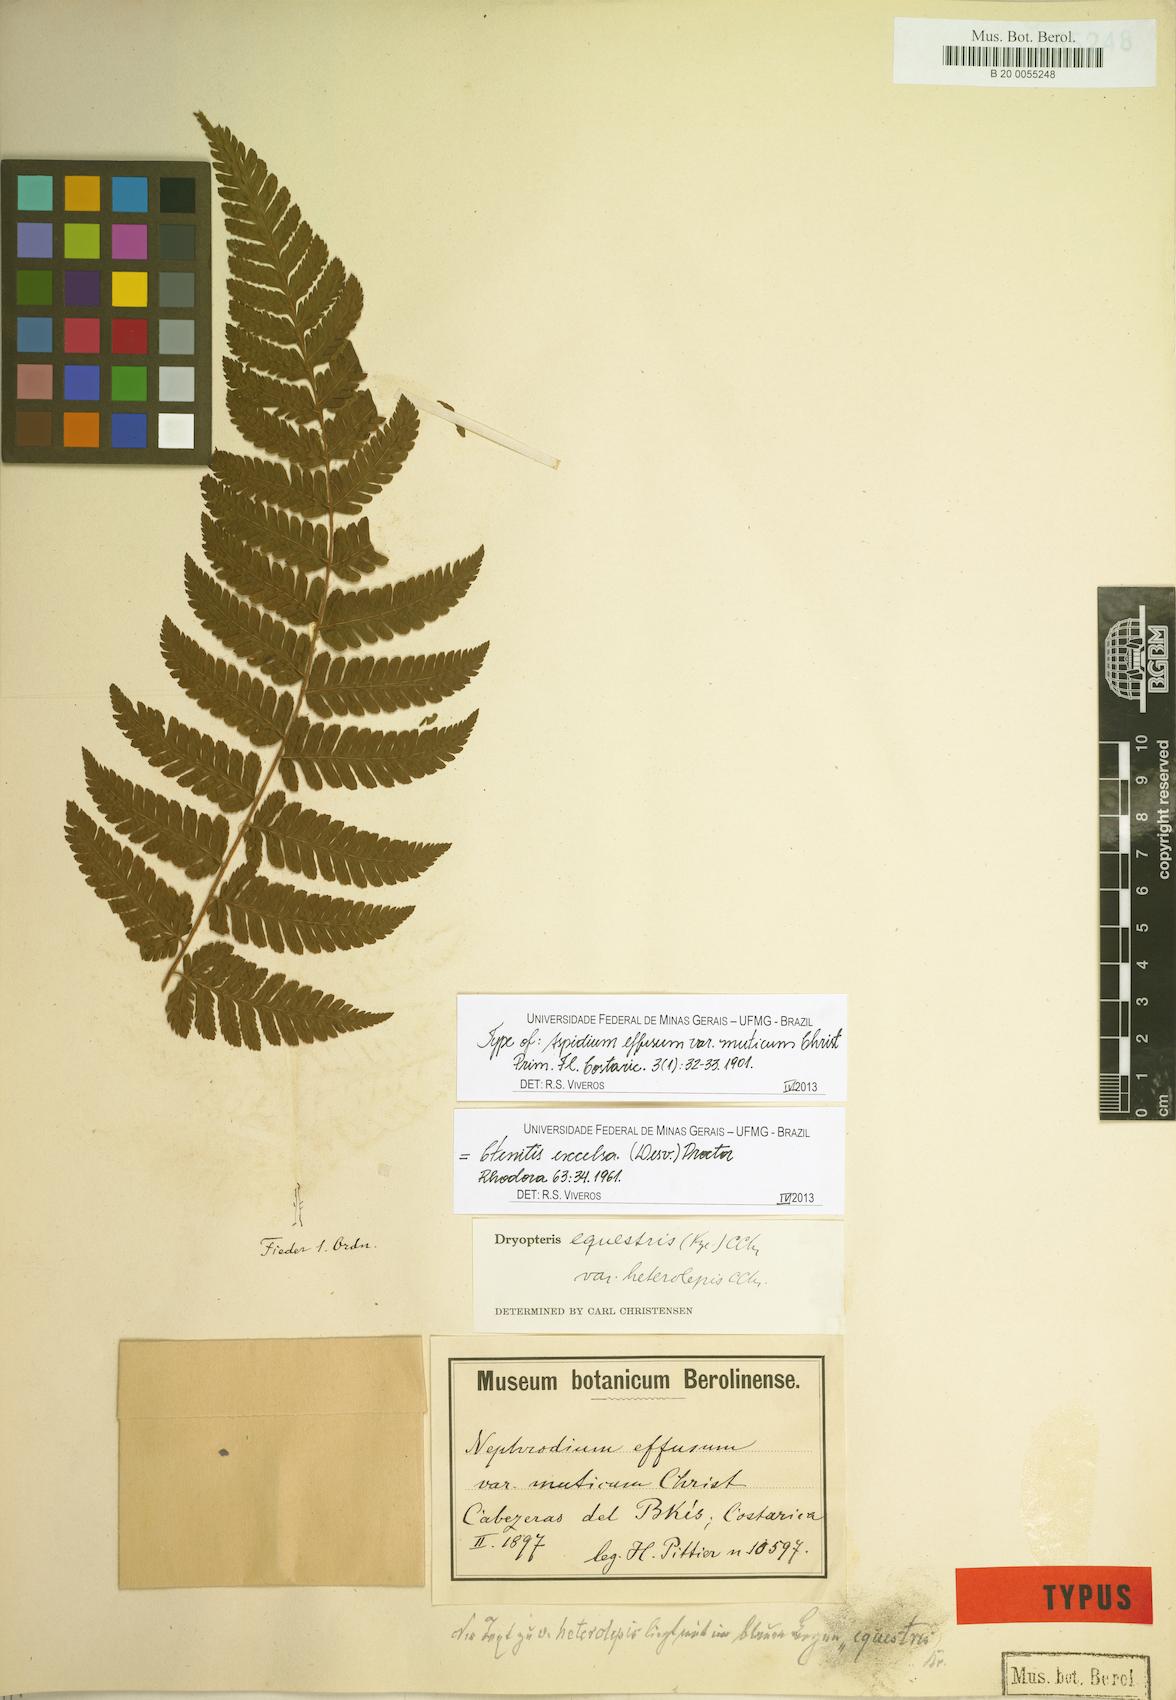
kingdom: Plantae
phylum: Tracheophyta
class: Polypodiopsida
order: Polypodiales
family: Dryopteridaceae
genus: Ctenitis
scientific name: Ctenitis excelsa
